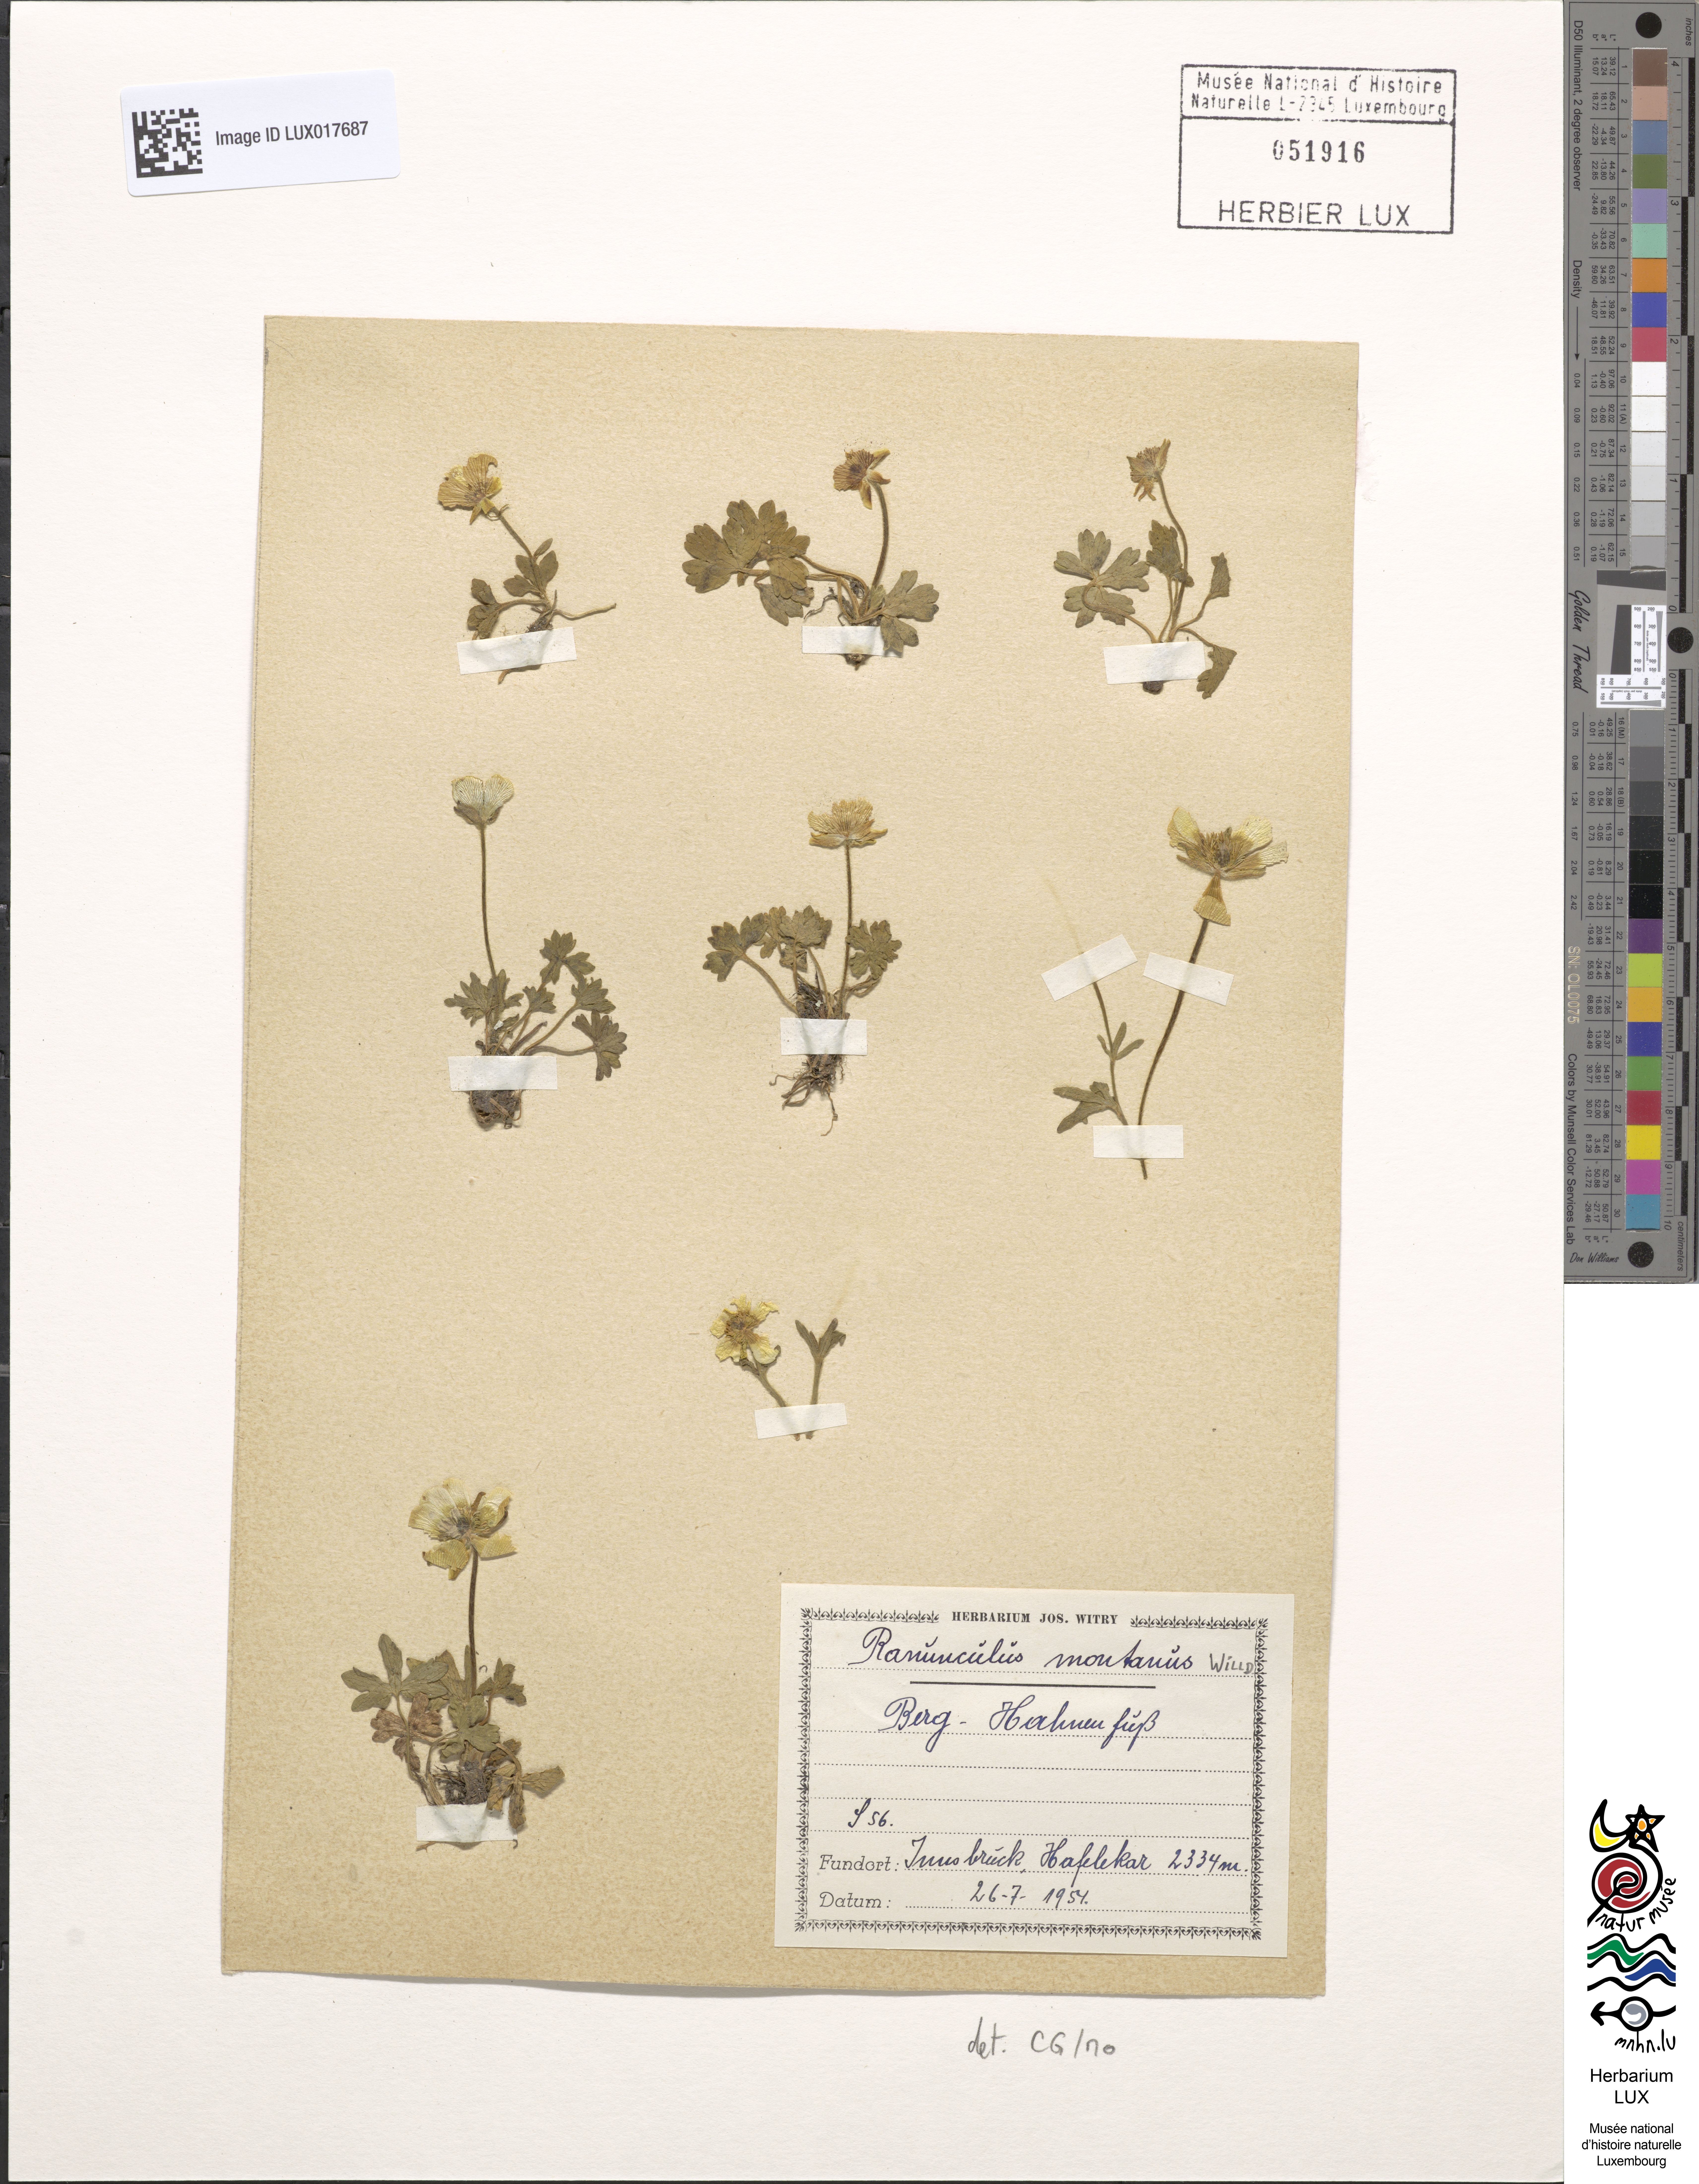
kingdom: Plantae
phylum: Tracheophyta
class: Magnoliopsida
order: Ranunculales
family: Ranunculaceae
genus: Ranunculus
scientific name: Ranunculus montanus
